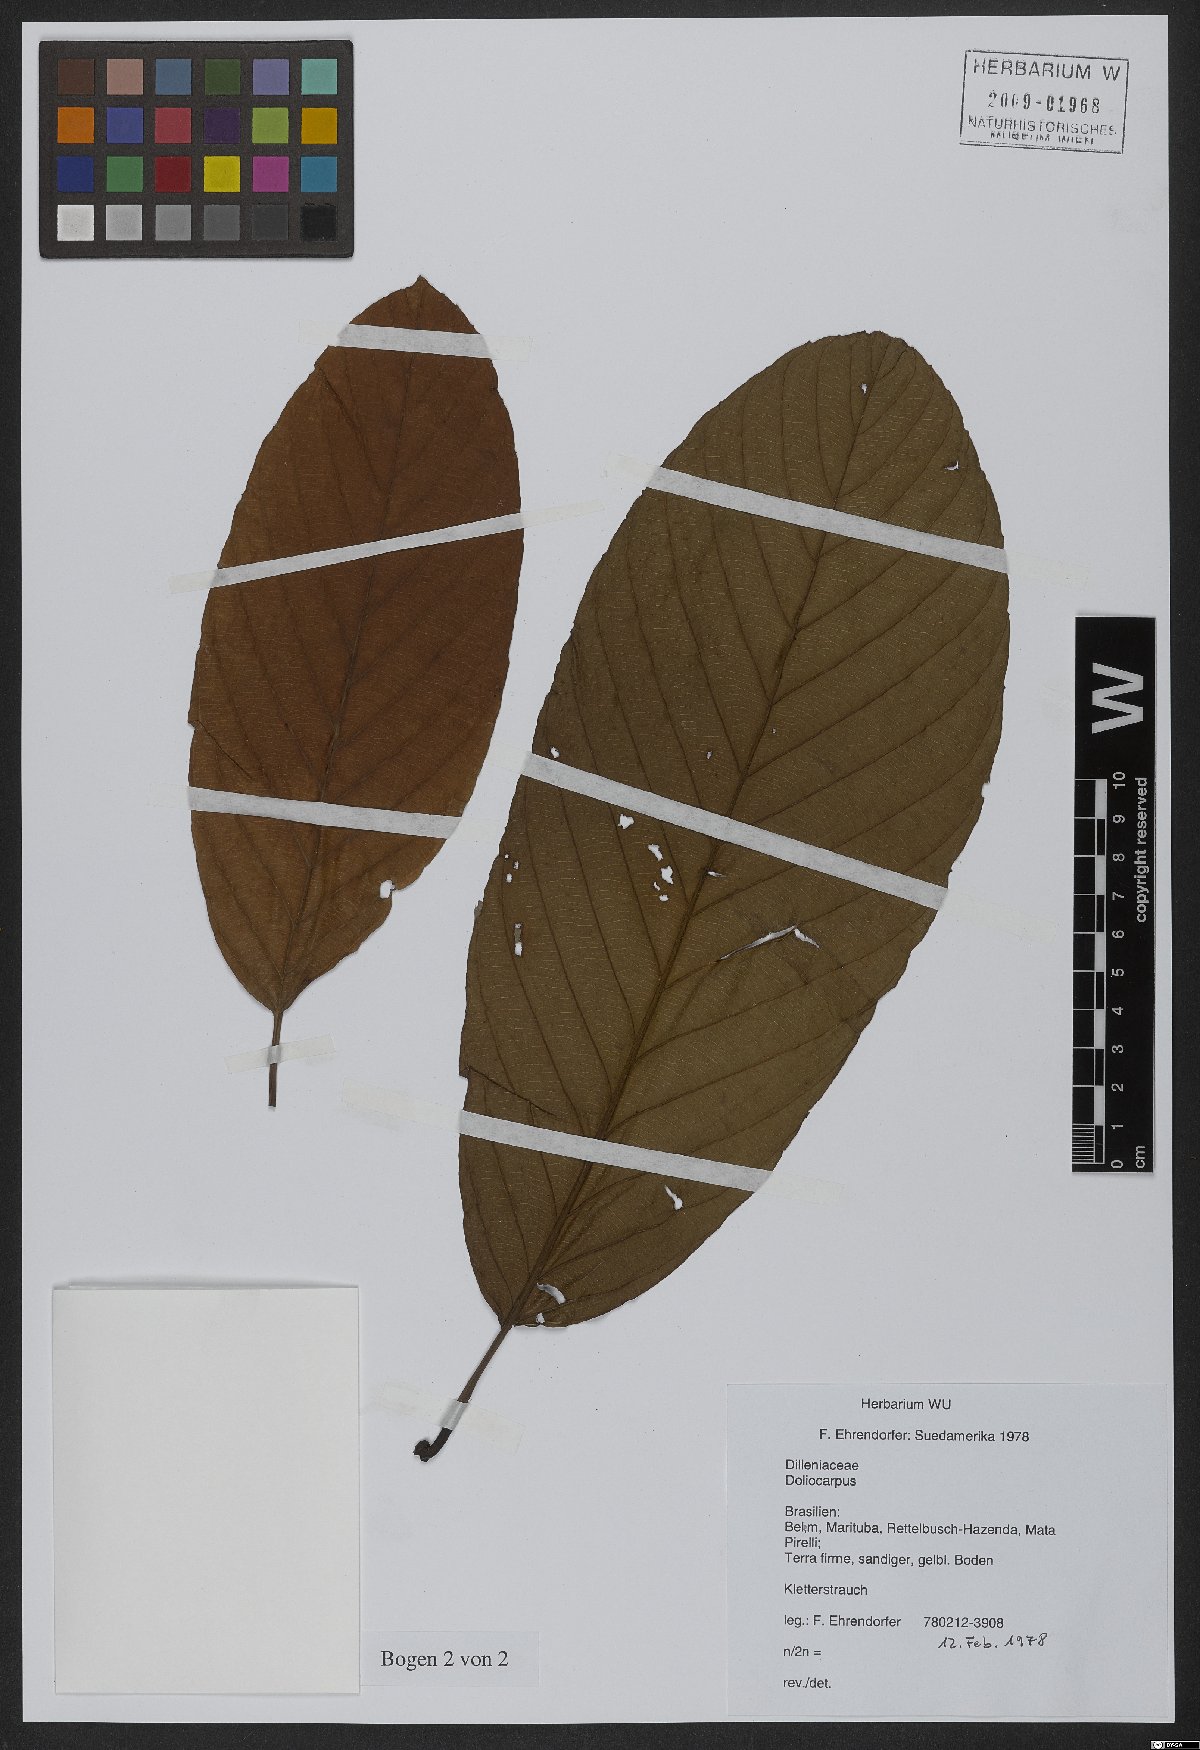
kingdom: Plantae
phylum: Tracheophyta
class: Magnoliopsida
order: Dilleniales
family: Dilleniaceae
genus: Doliocarpus
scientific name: Doliocarpus
